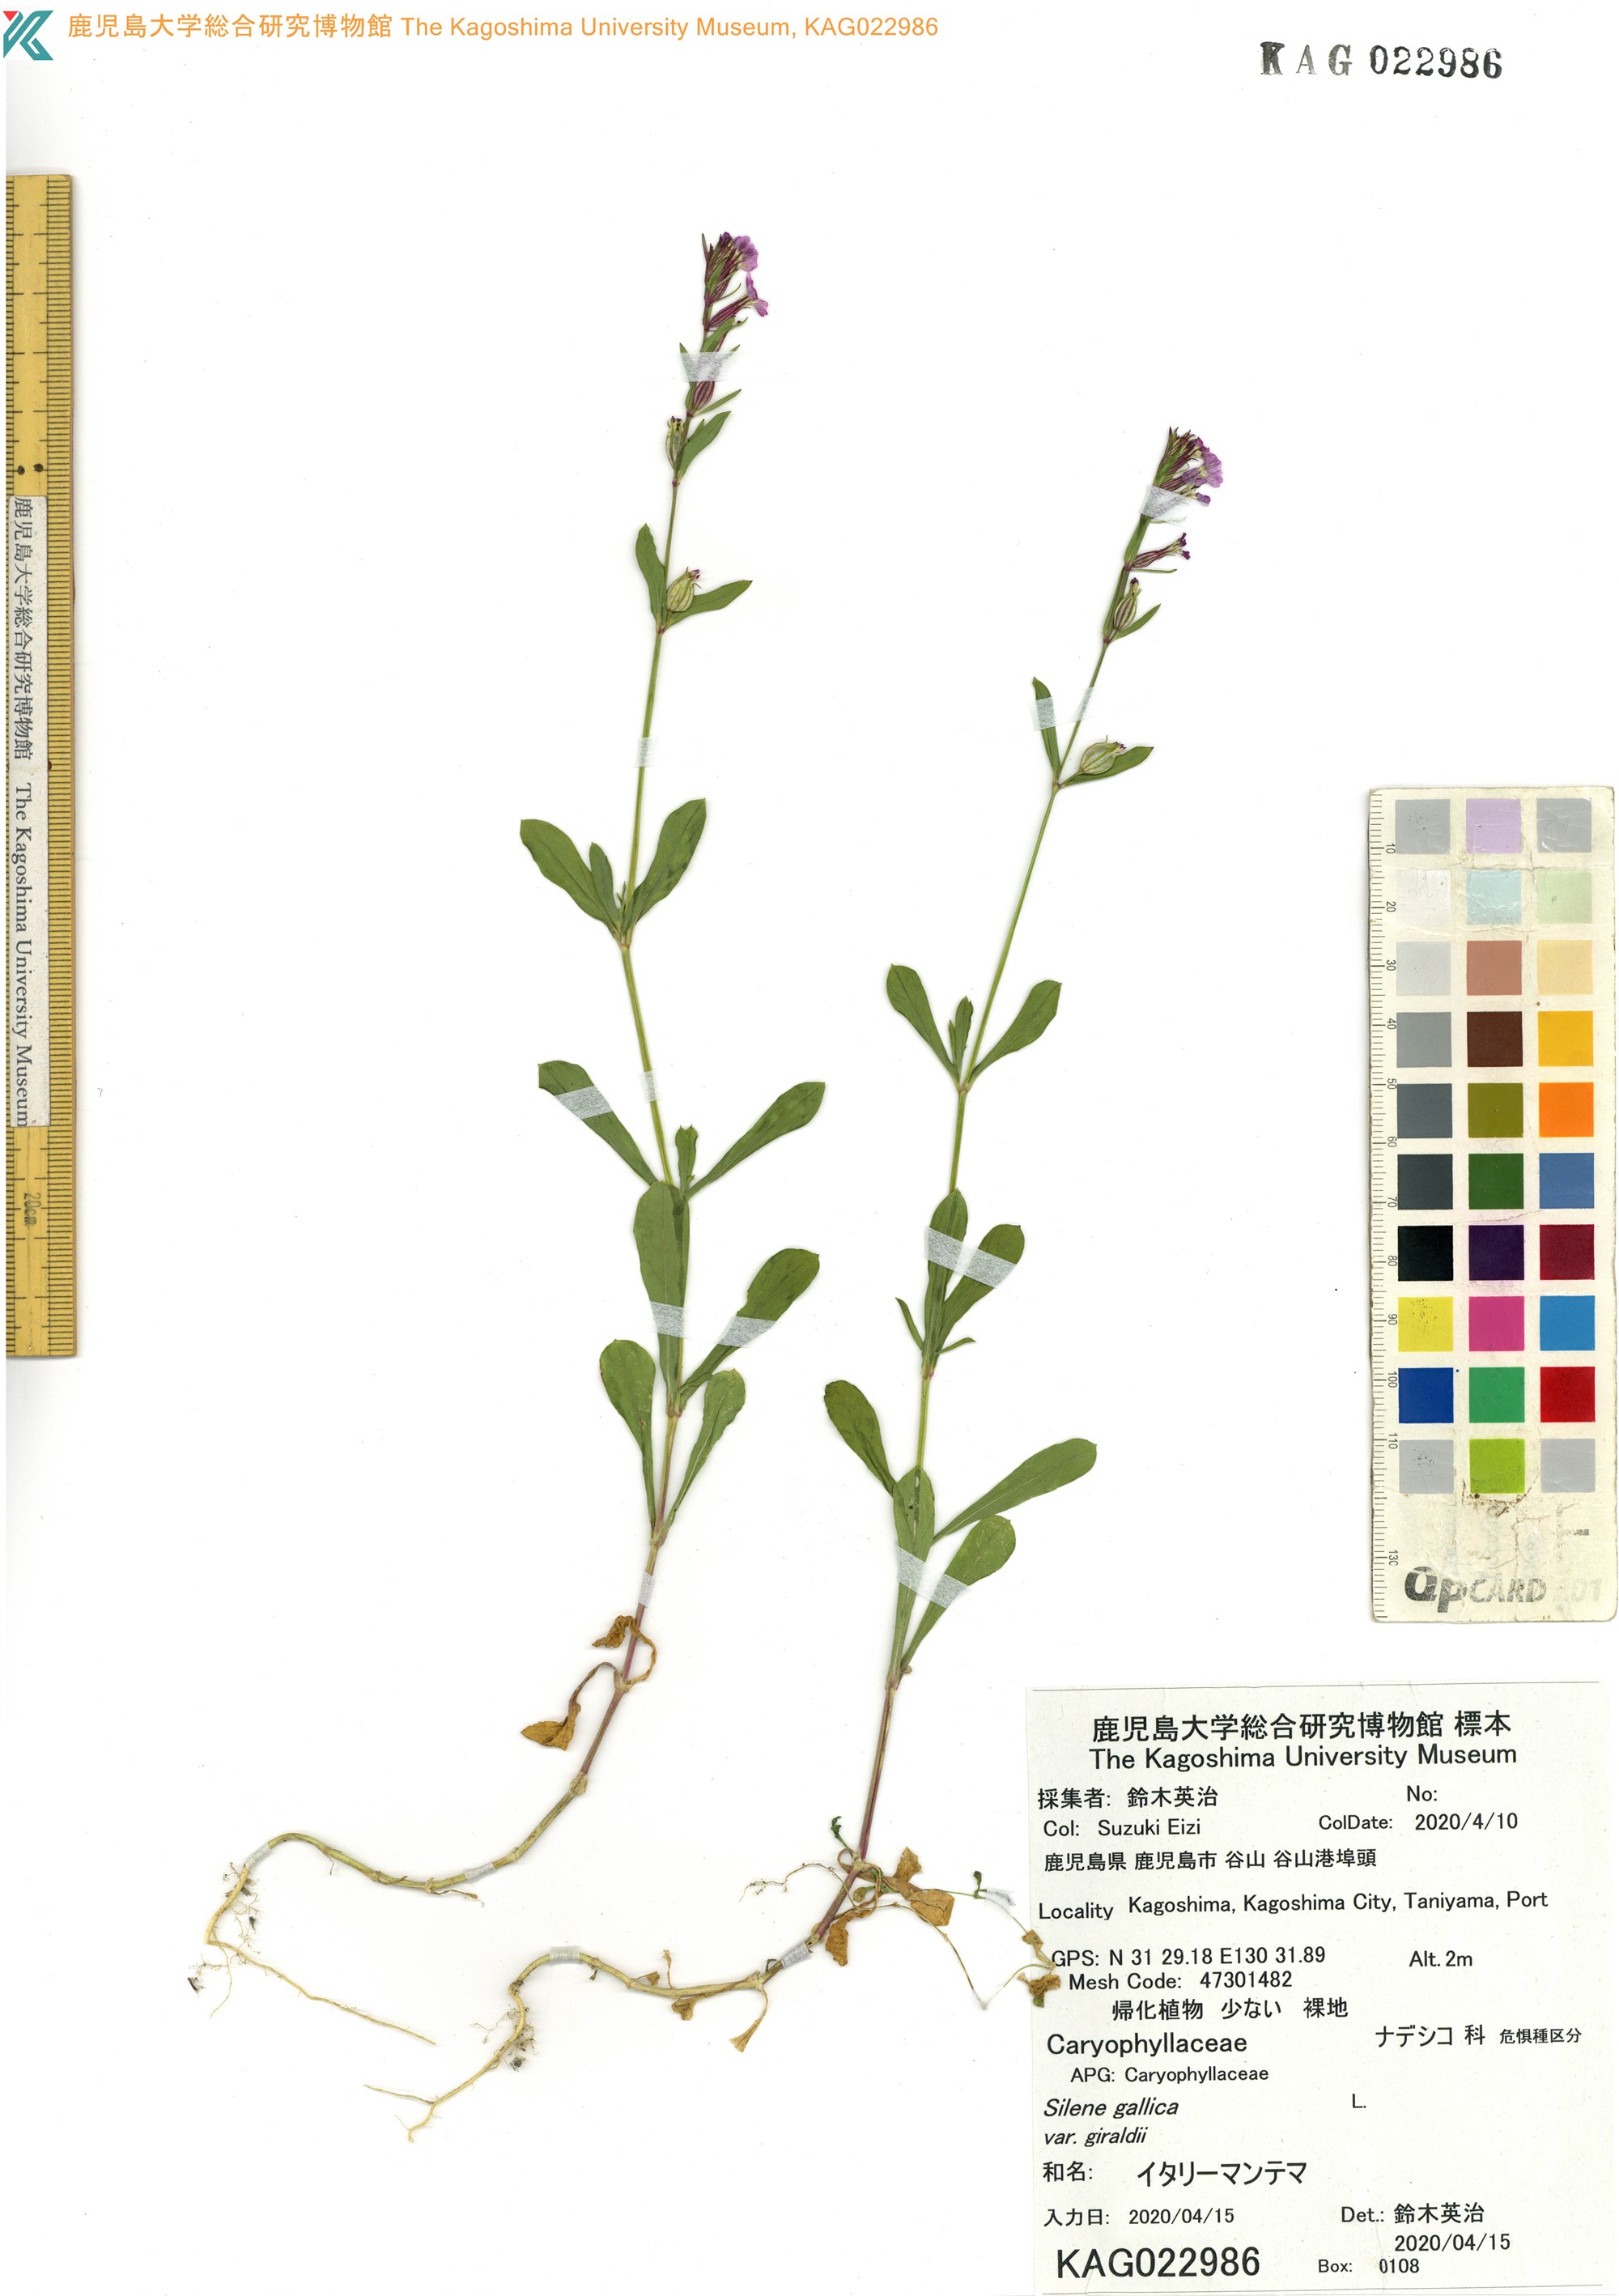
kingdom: Plantae
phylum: Tracheophyta
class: Magnoliopsida
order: Caryophyllales
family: Caryophyllaceae
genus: Silene
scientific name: Silene gallica
